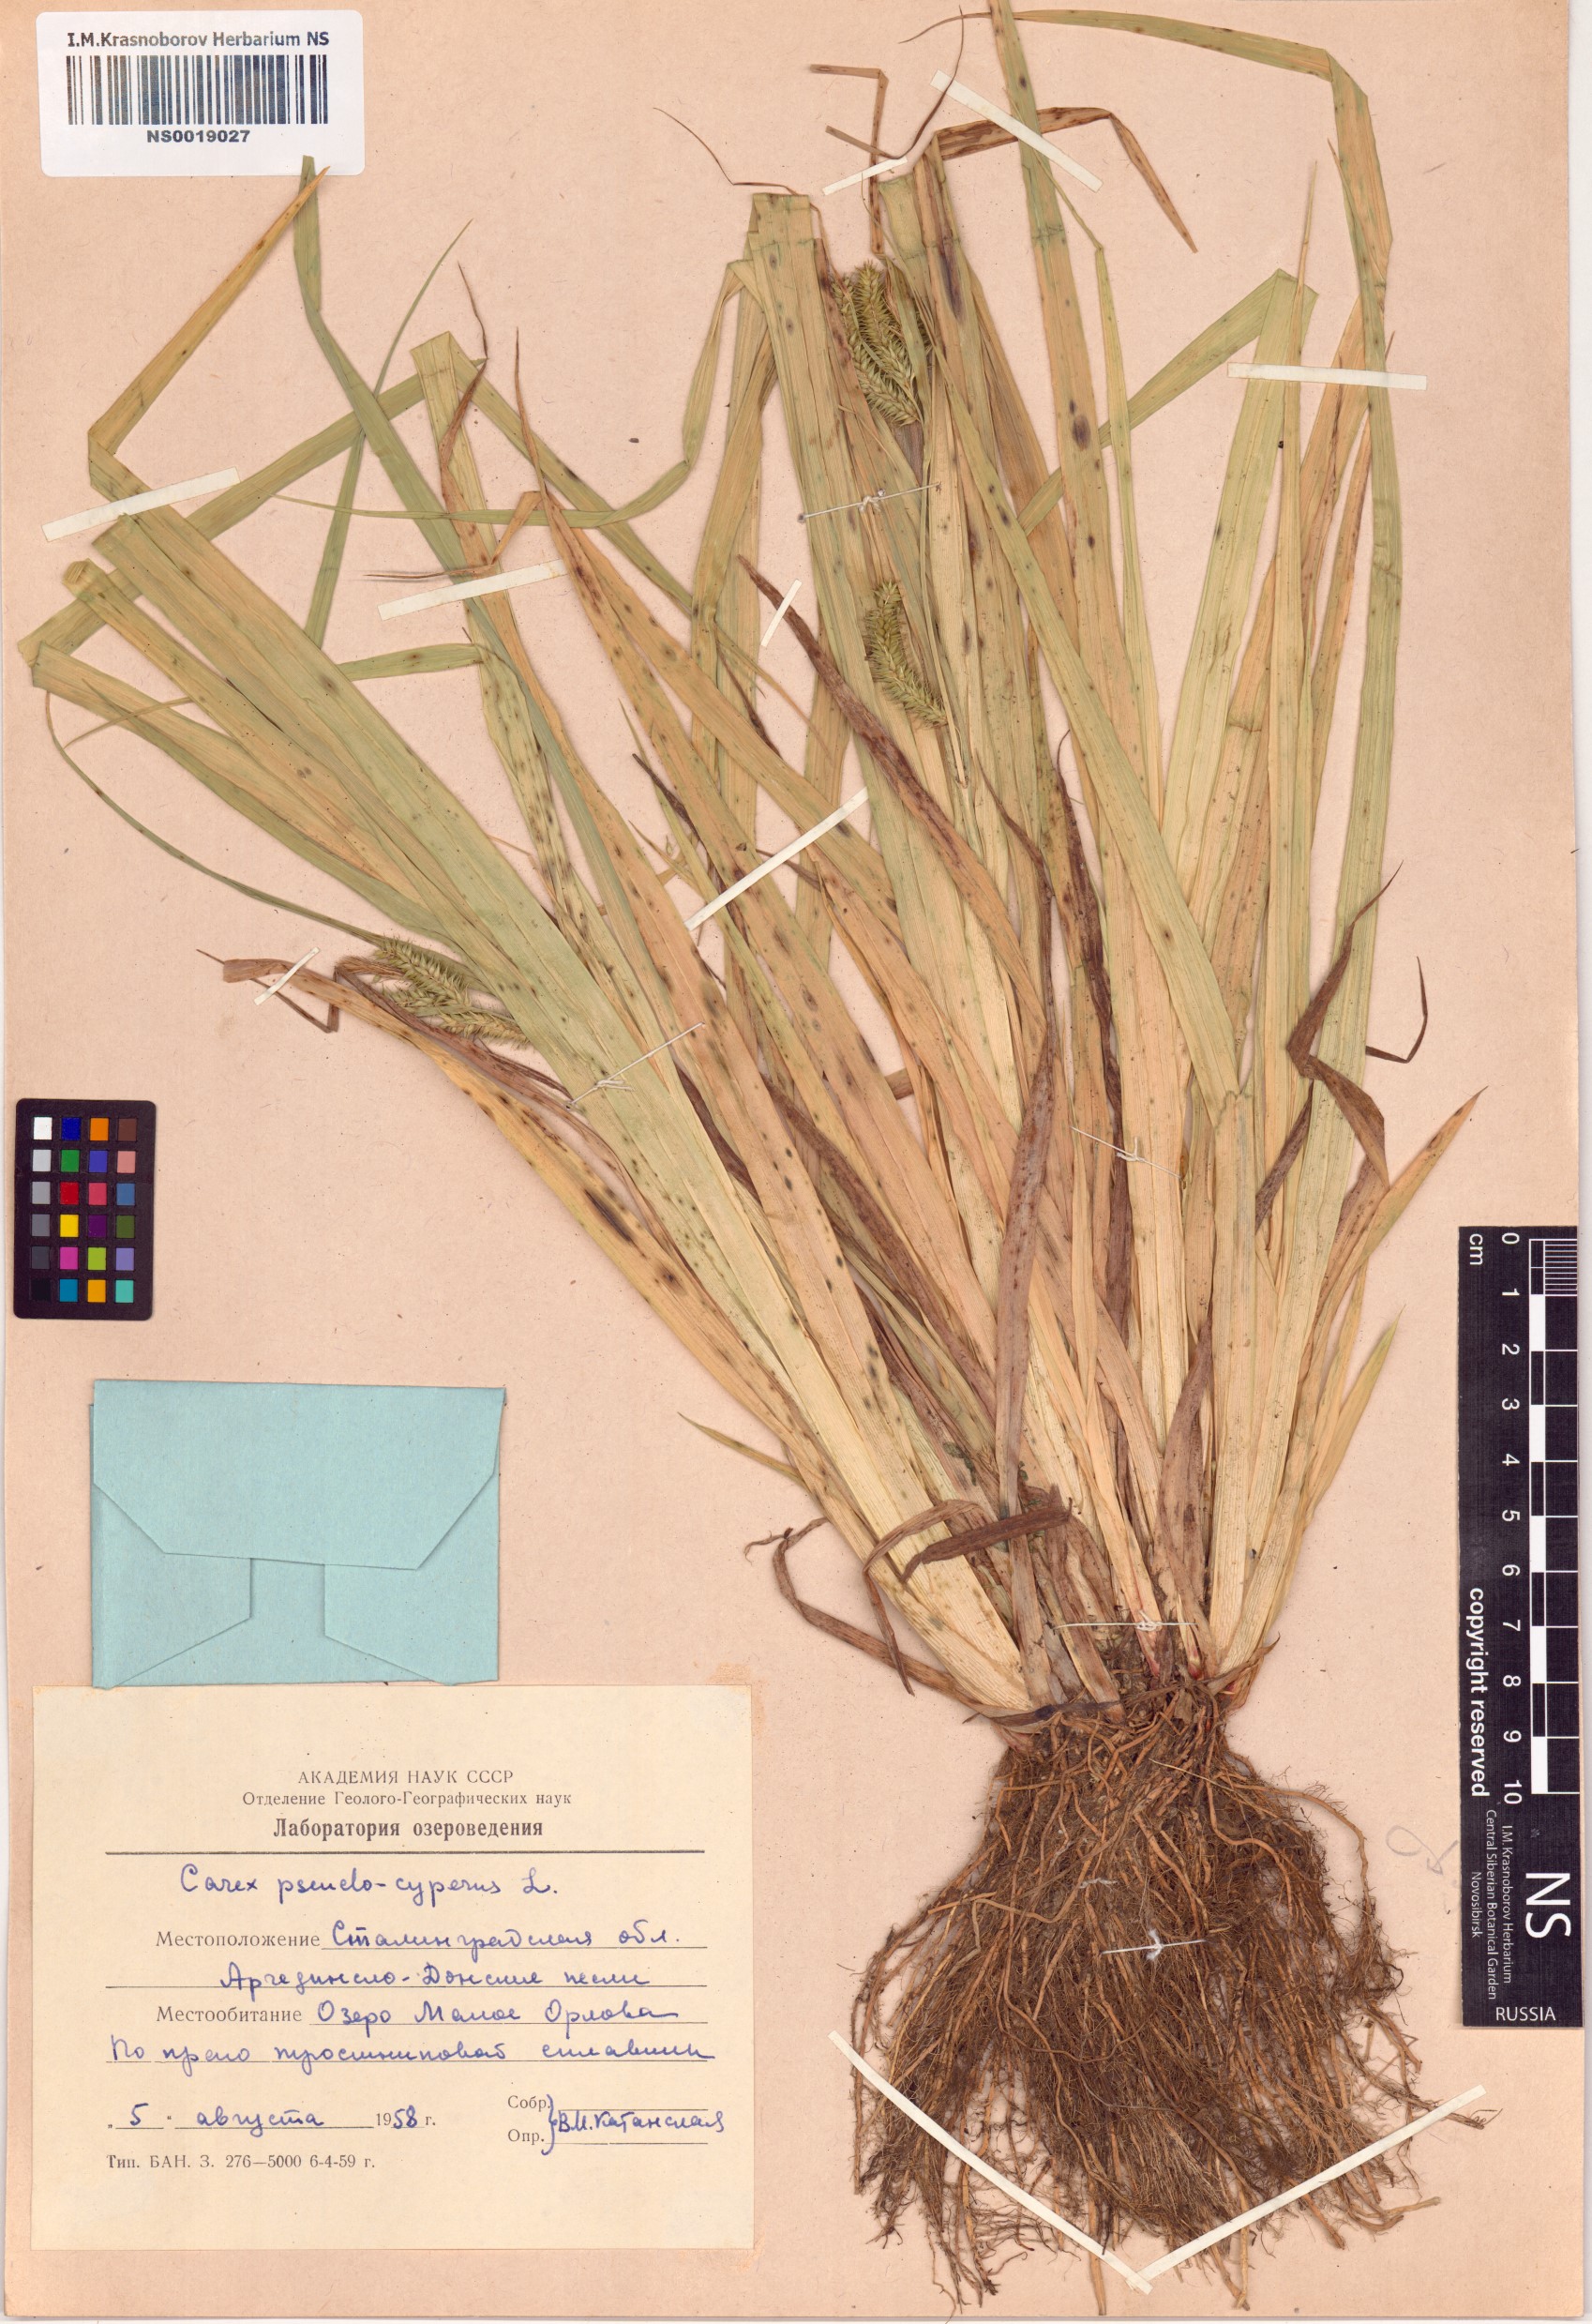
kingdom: Plantae
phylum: Tracheophyta
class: Liliopsida
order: Poales
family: Cyperaceae
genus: Carex
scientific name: Carex pseudocyperus
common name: Cyperus sedge
